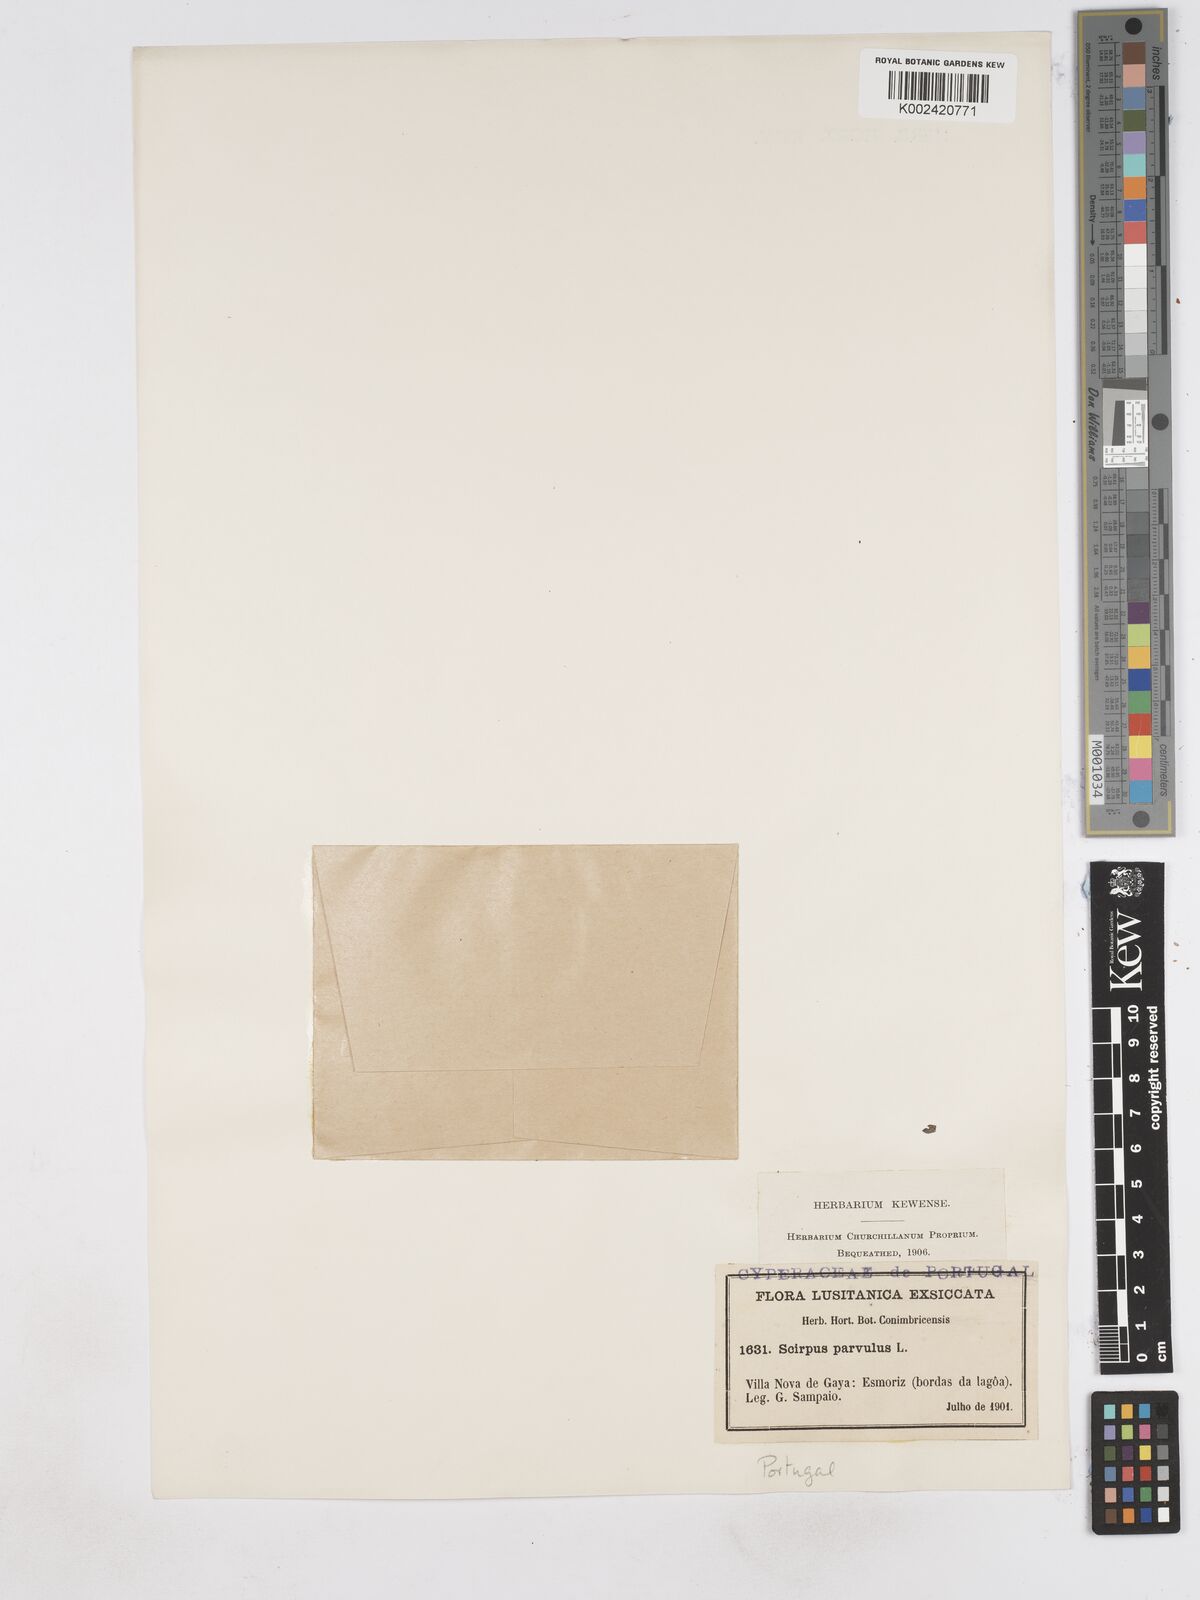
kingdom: Plantae
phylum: Tracheophyta
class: Liliopsida
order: Poales
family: Cyperaceae
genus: Eleocharis
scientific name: Eleocharis parvula
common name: Dwarf spike-rush
